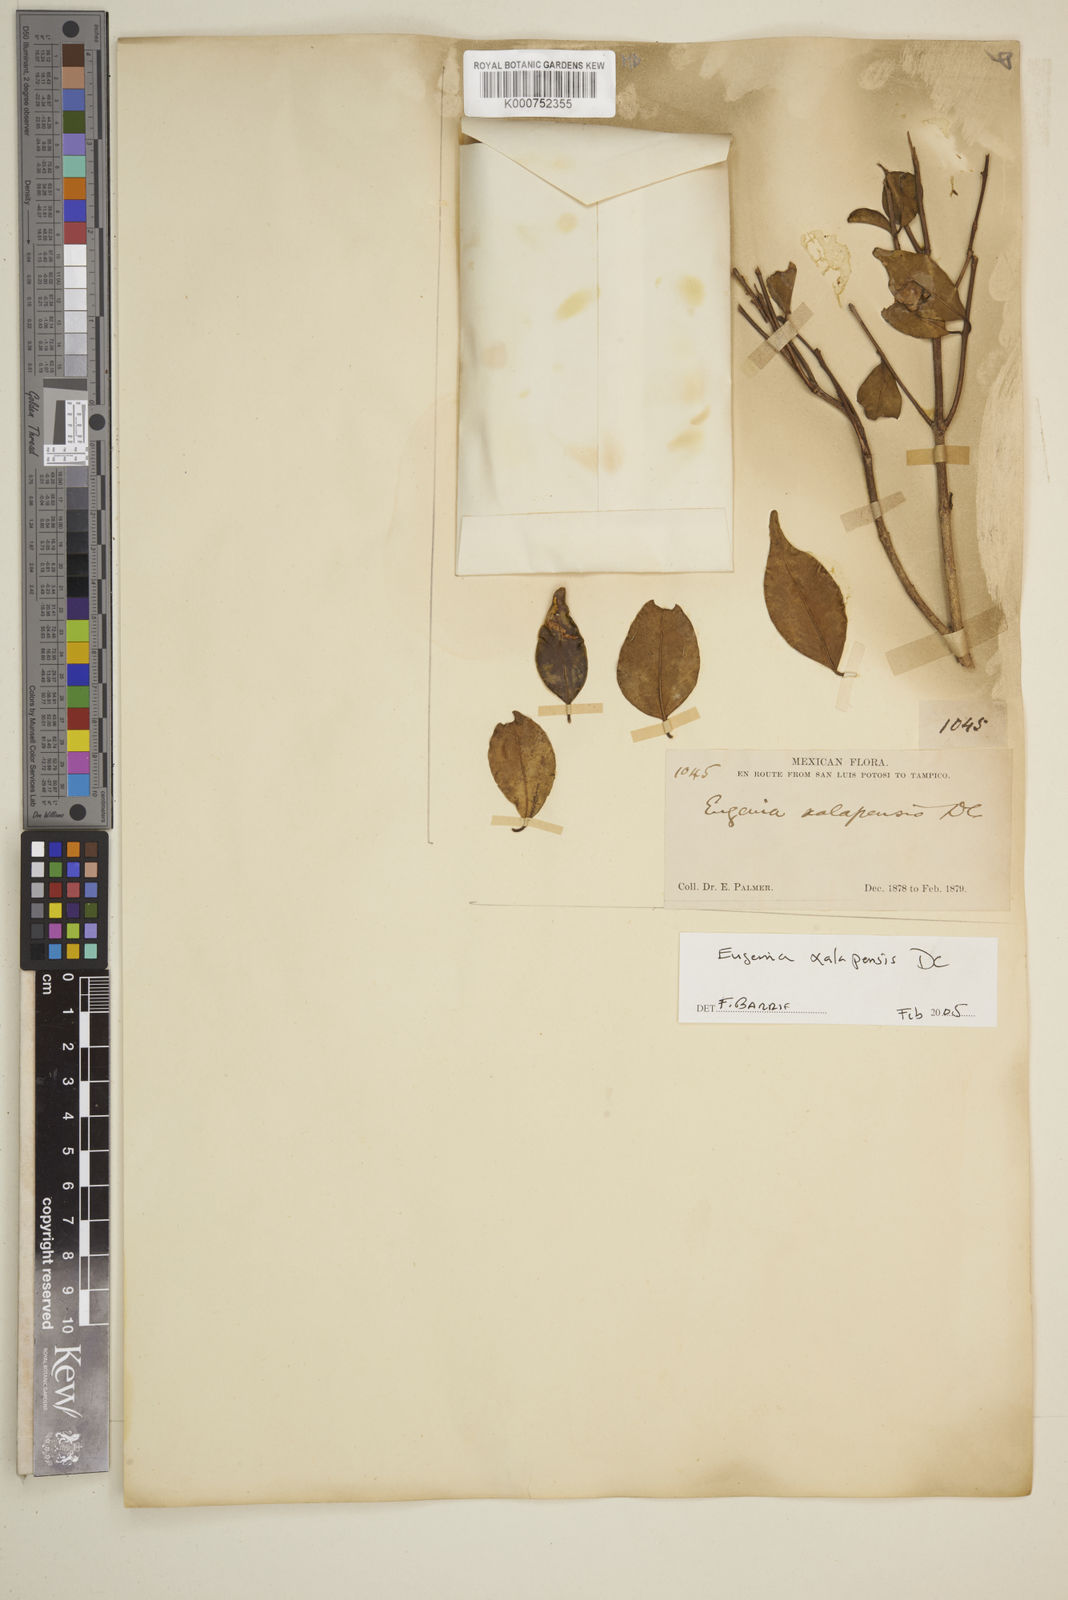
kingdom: Plantae
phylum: Tracheophyta
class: Magnoliopsida
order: Myrtales
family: Myrtaceae
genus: Eugenia
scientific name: Eugenia xalapensis
